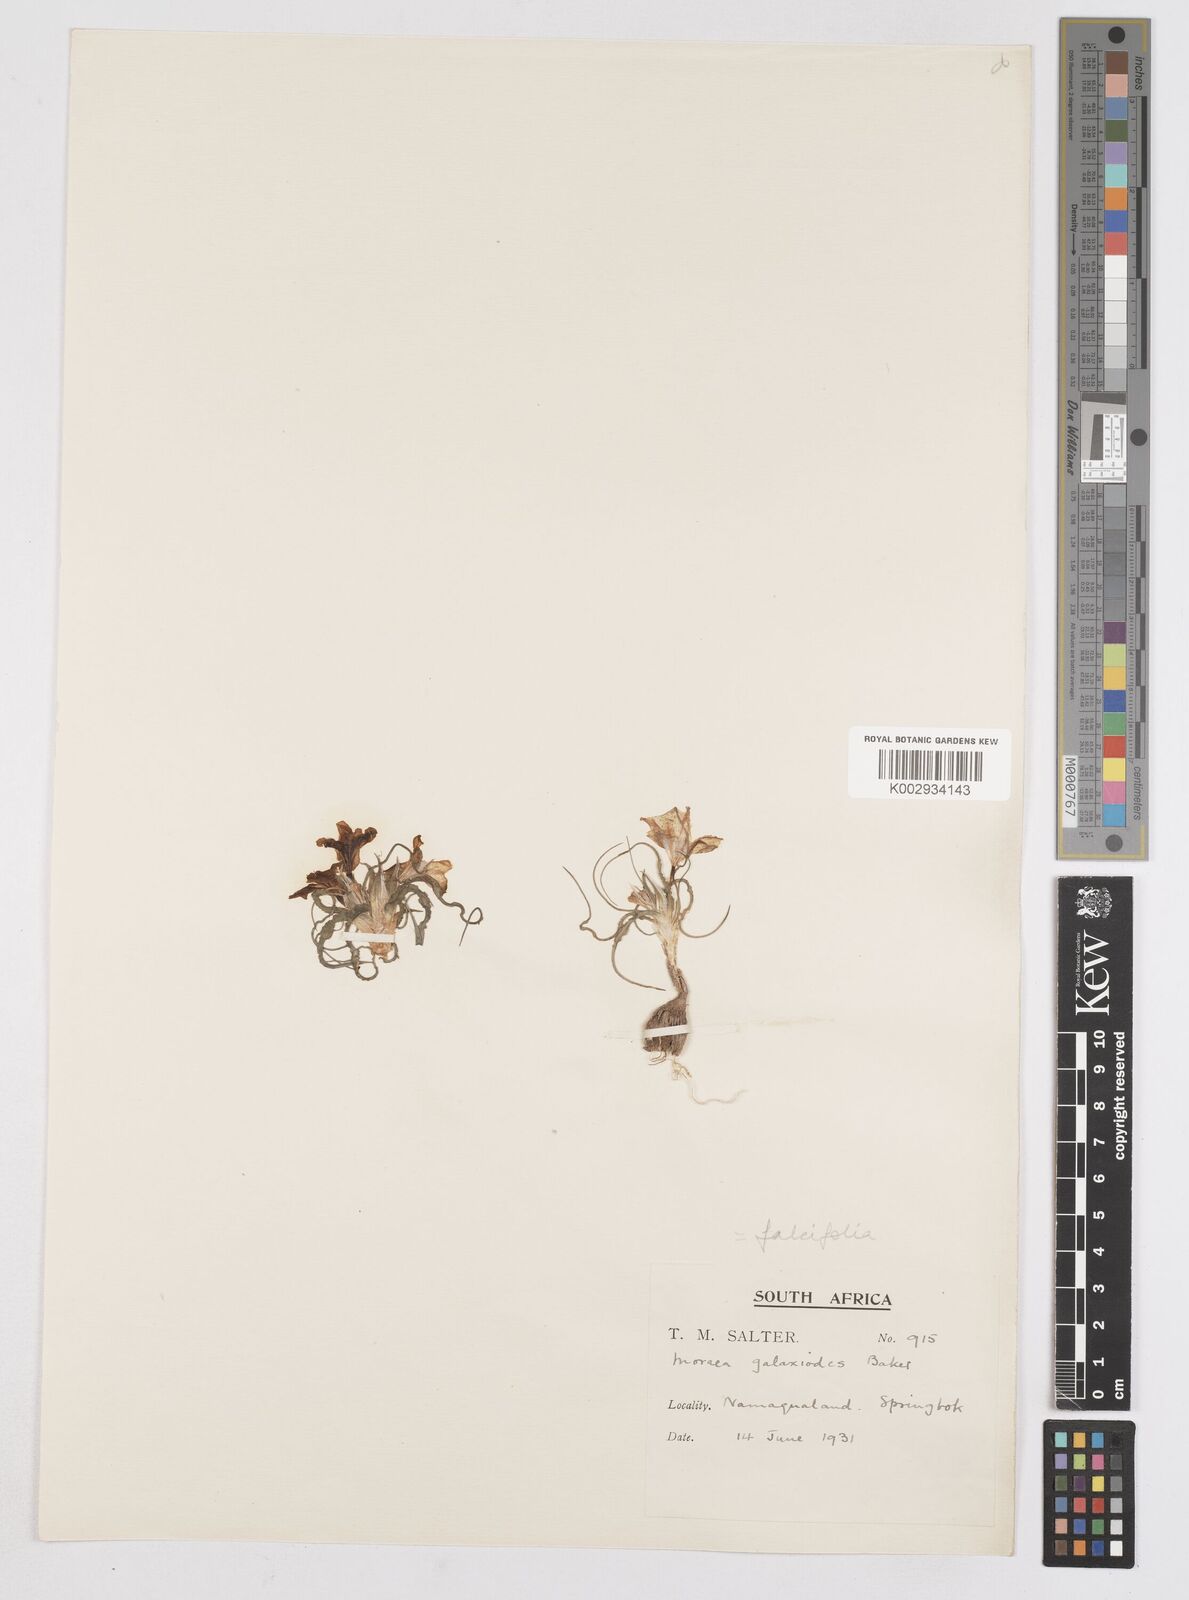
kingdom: Plantae
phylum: Tracheophyta
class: Liliopsida
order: Asparagales
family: Iridaceae
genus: Moraea
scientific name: Moraea falcifolia
